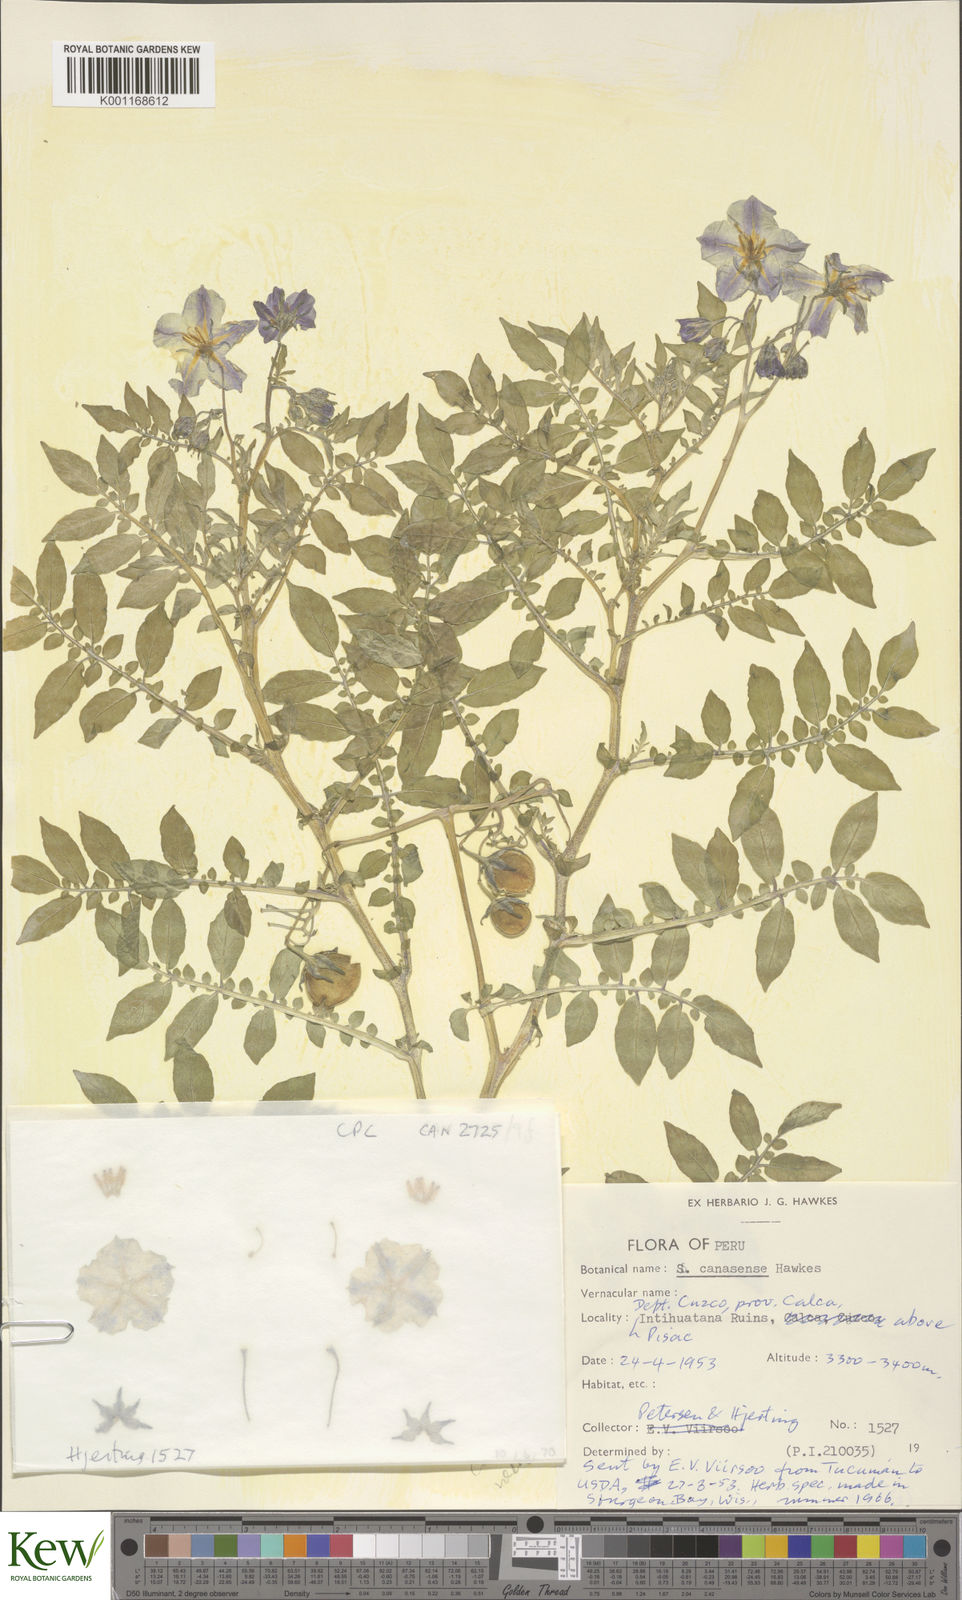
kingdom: Plantae
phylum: Tracheophyta
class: Magnoliopsida
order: Solanales
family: Solanaceae
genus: Solanum
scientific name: Solanum candolleanum
